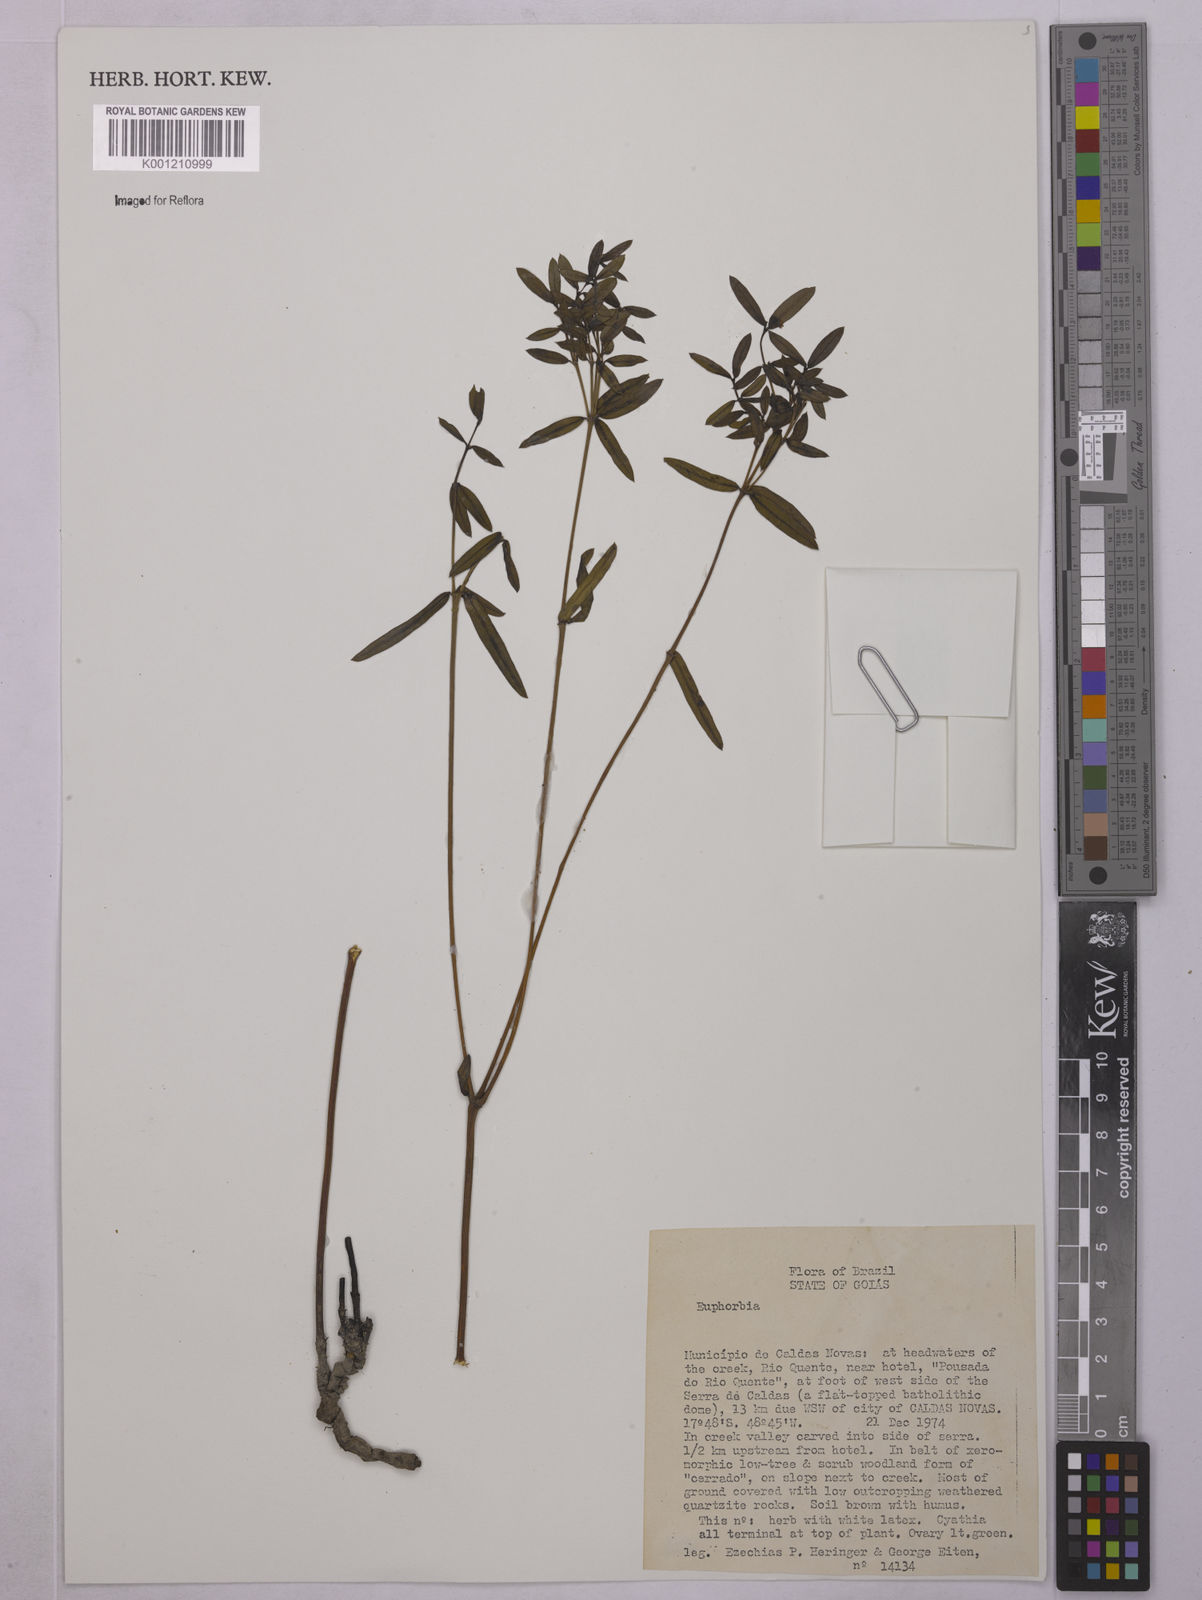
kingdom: Plantae
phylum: Tracheophyta
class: Magnoliopsida
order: Malpighiales
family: Euphorbiaceae
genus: Euphorbia
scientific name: Euphorbia
